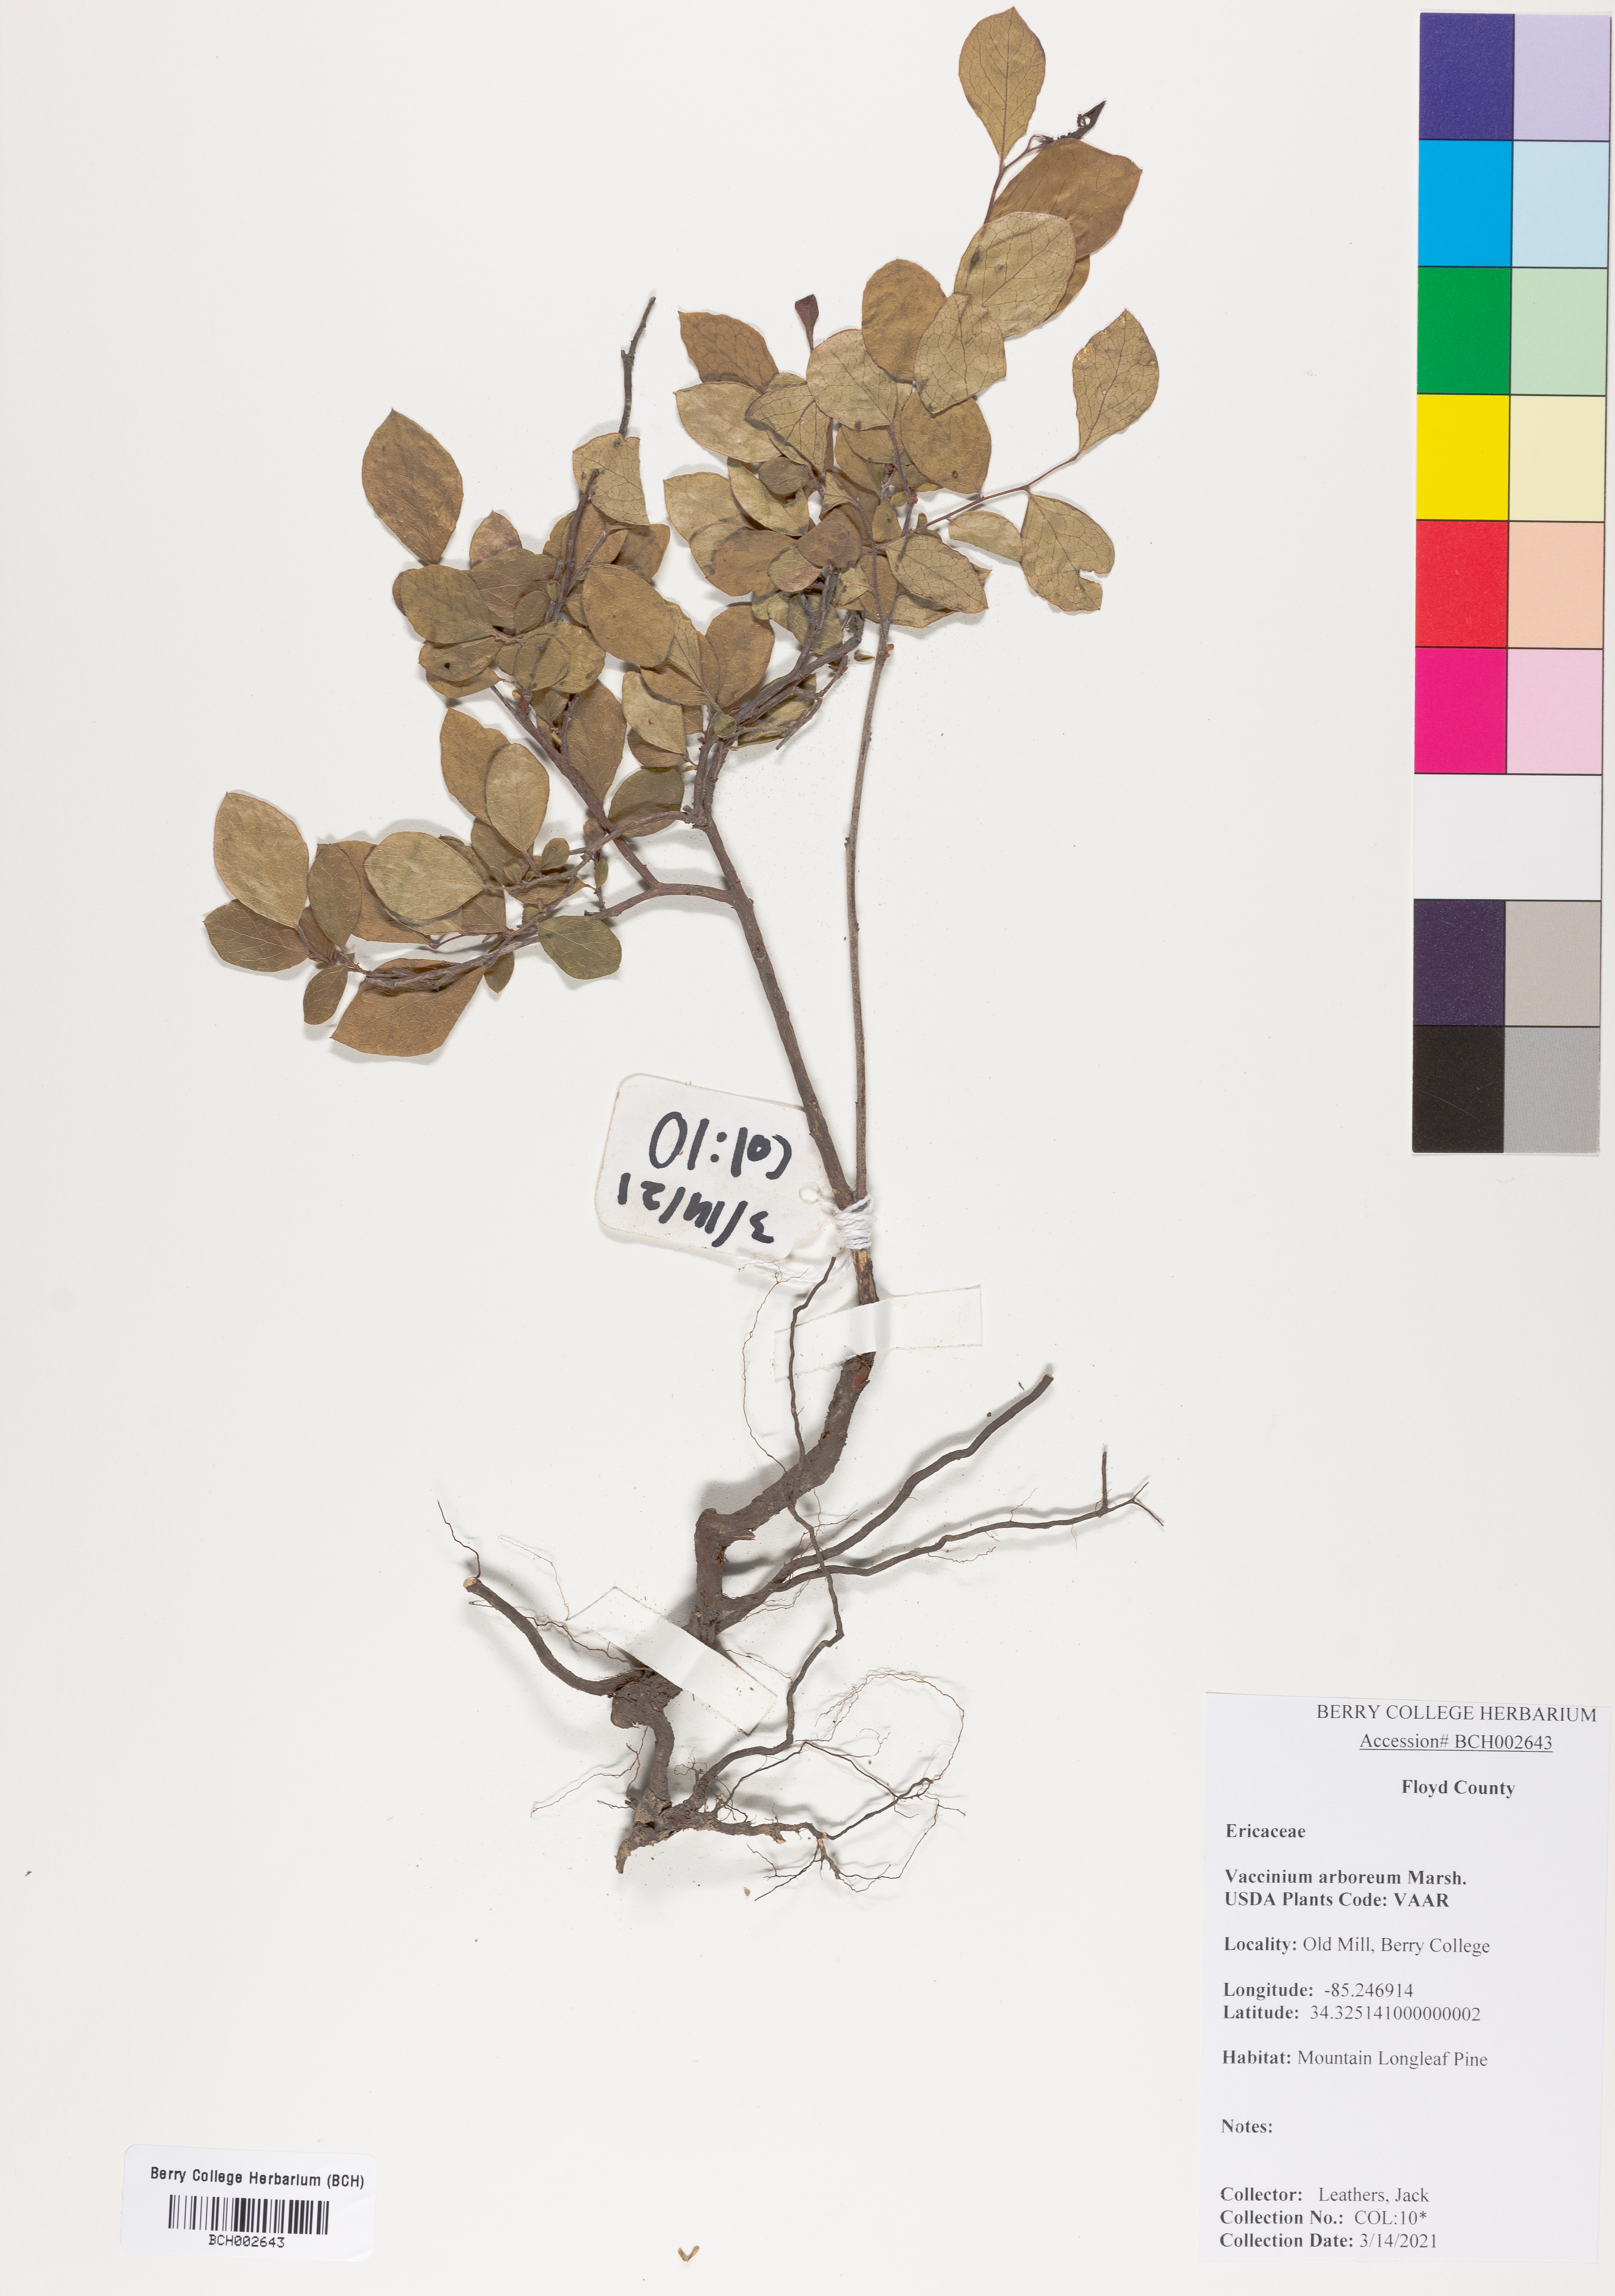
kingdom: Plantae
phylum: Tracheophyta
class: Magnoliopsida
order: Ericales
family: Ericaceae
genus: Vaccinium
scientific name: Vaccinium arboreum
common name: Farkleberry
